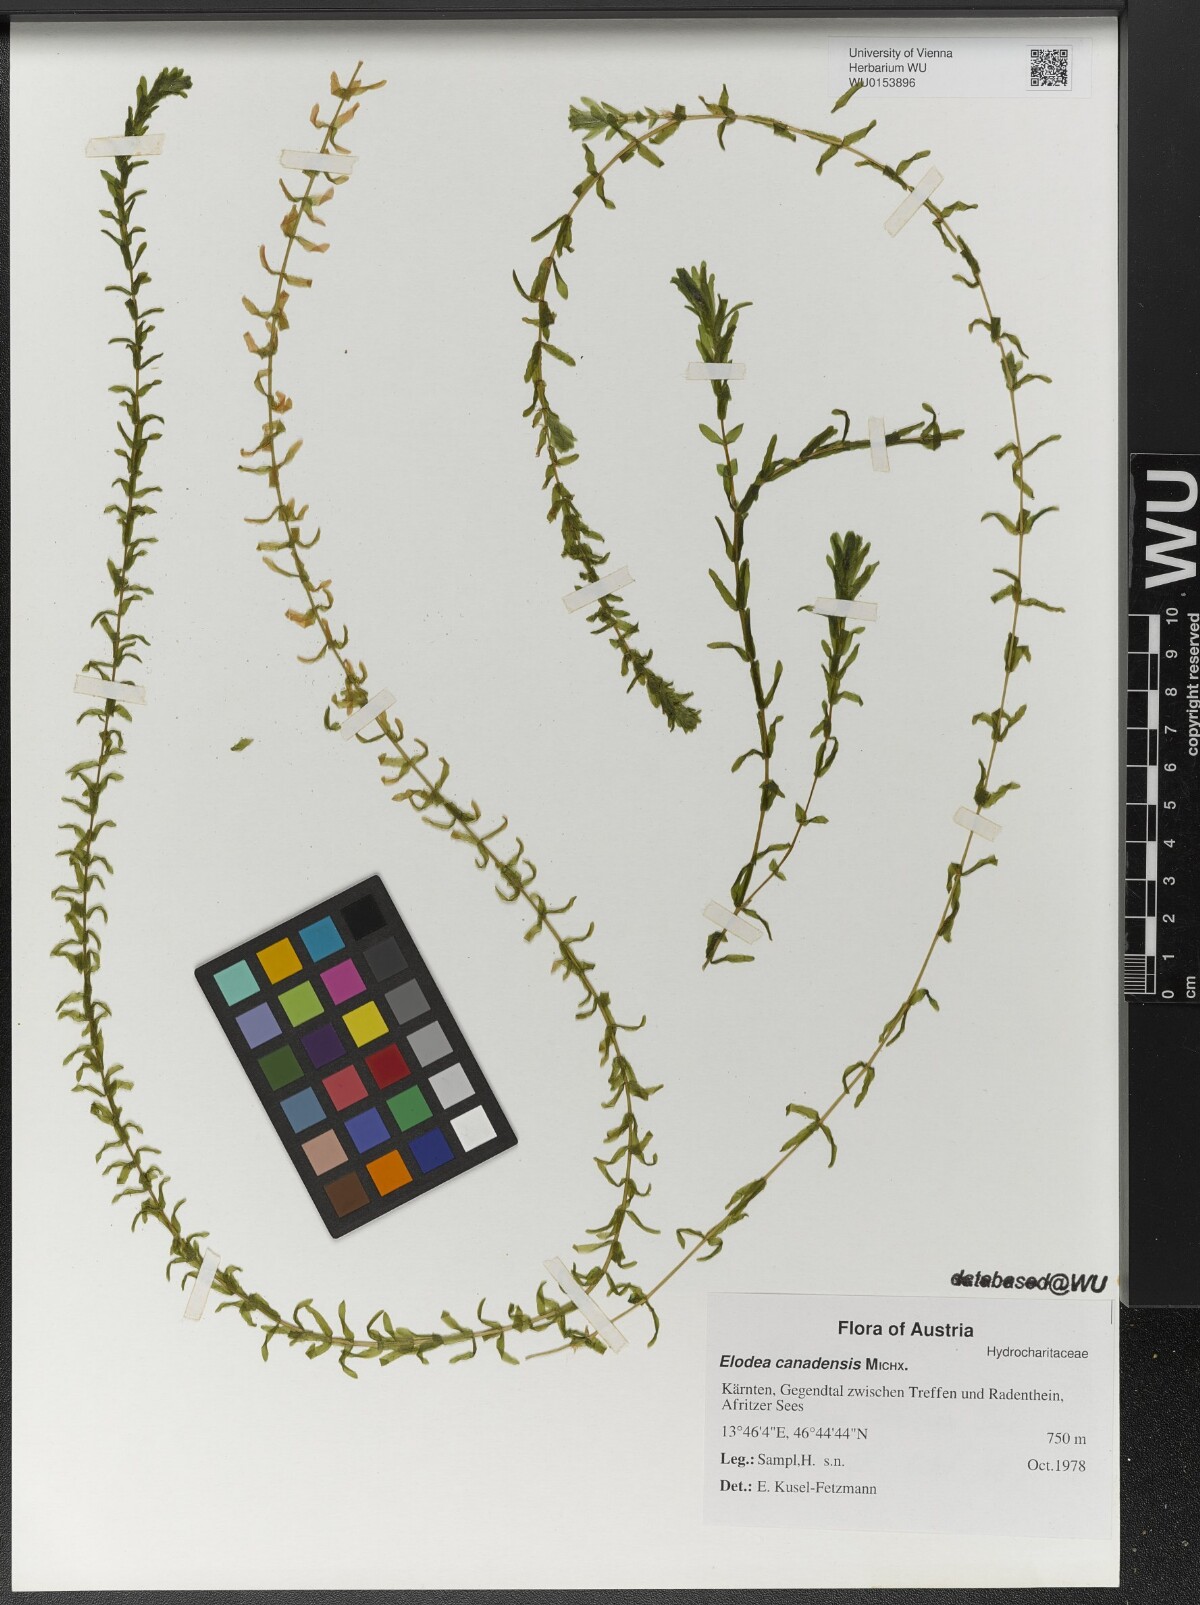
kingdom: Plantae
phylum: Tracheophyta
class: Liliopsida
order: Alismatales
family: Hydrocharitaceae
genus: Elodea
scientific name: Elodea canadensis
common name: Canadian waterweed
